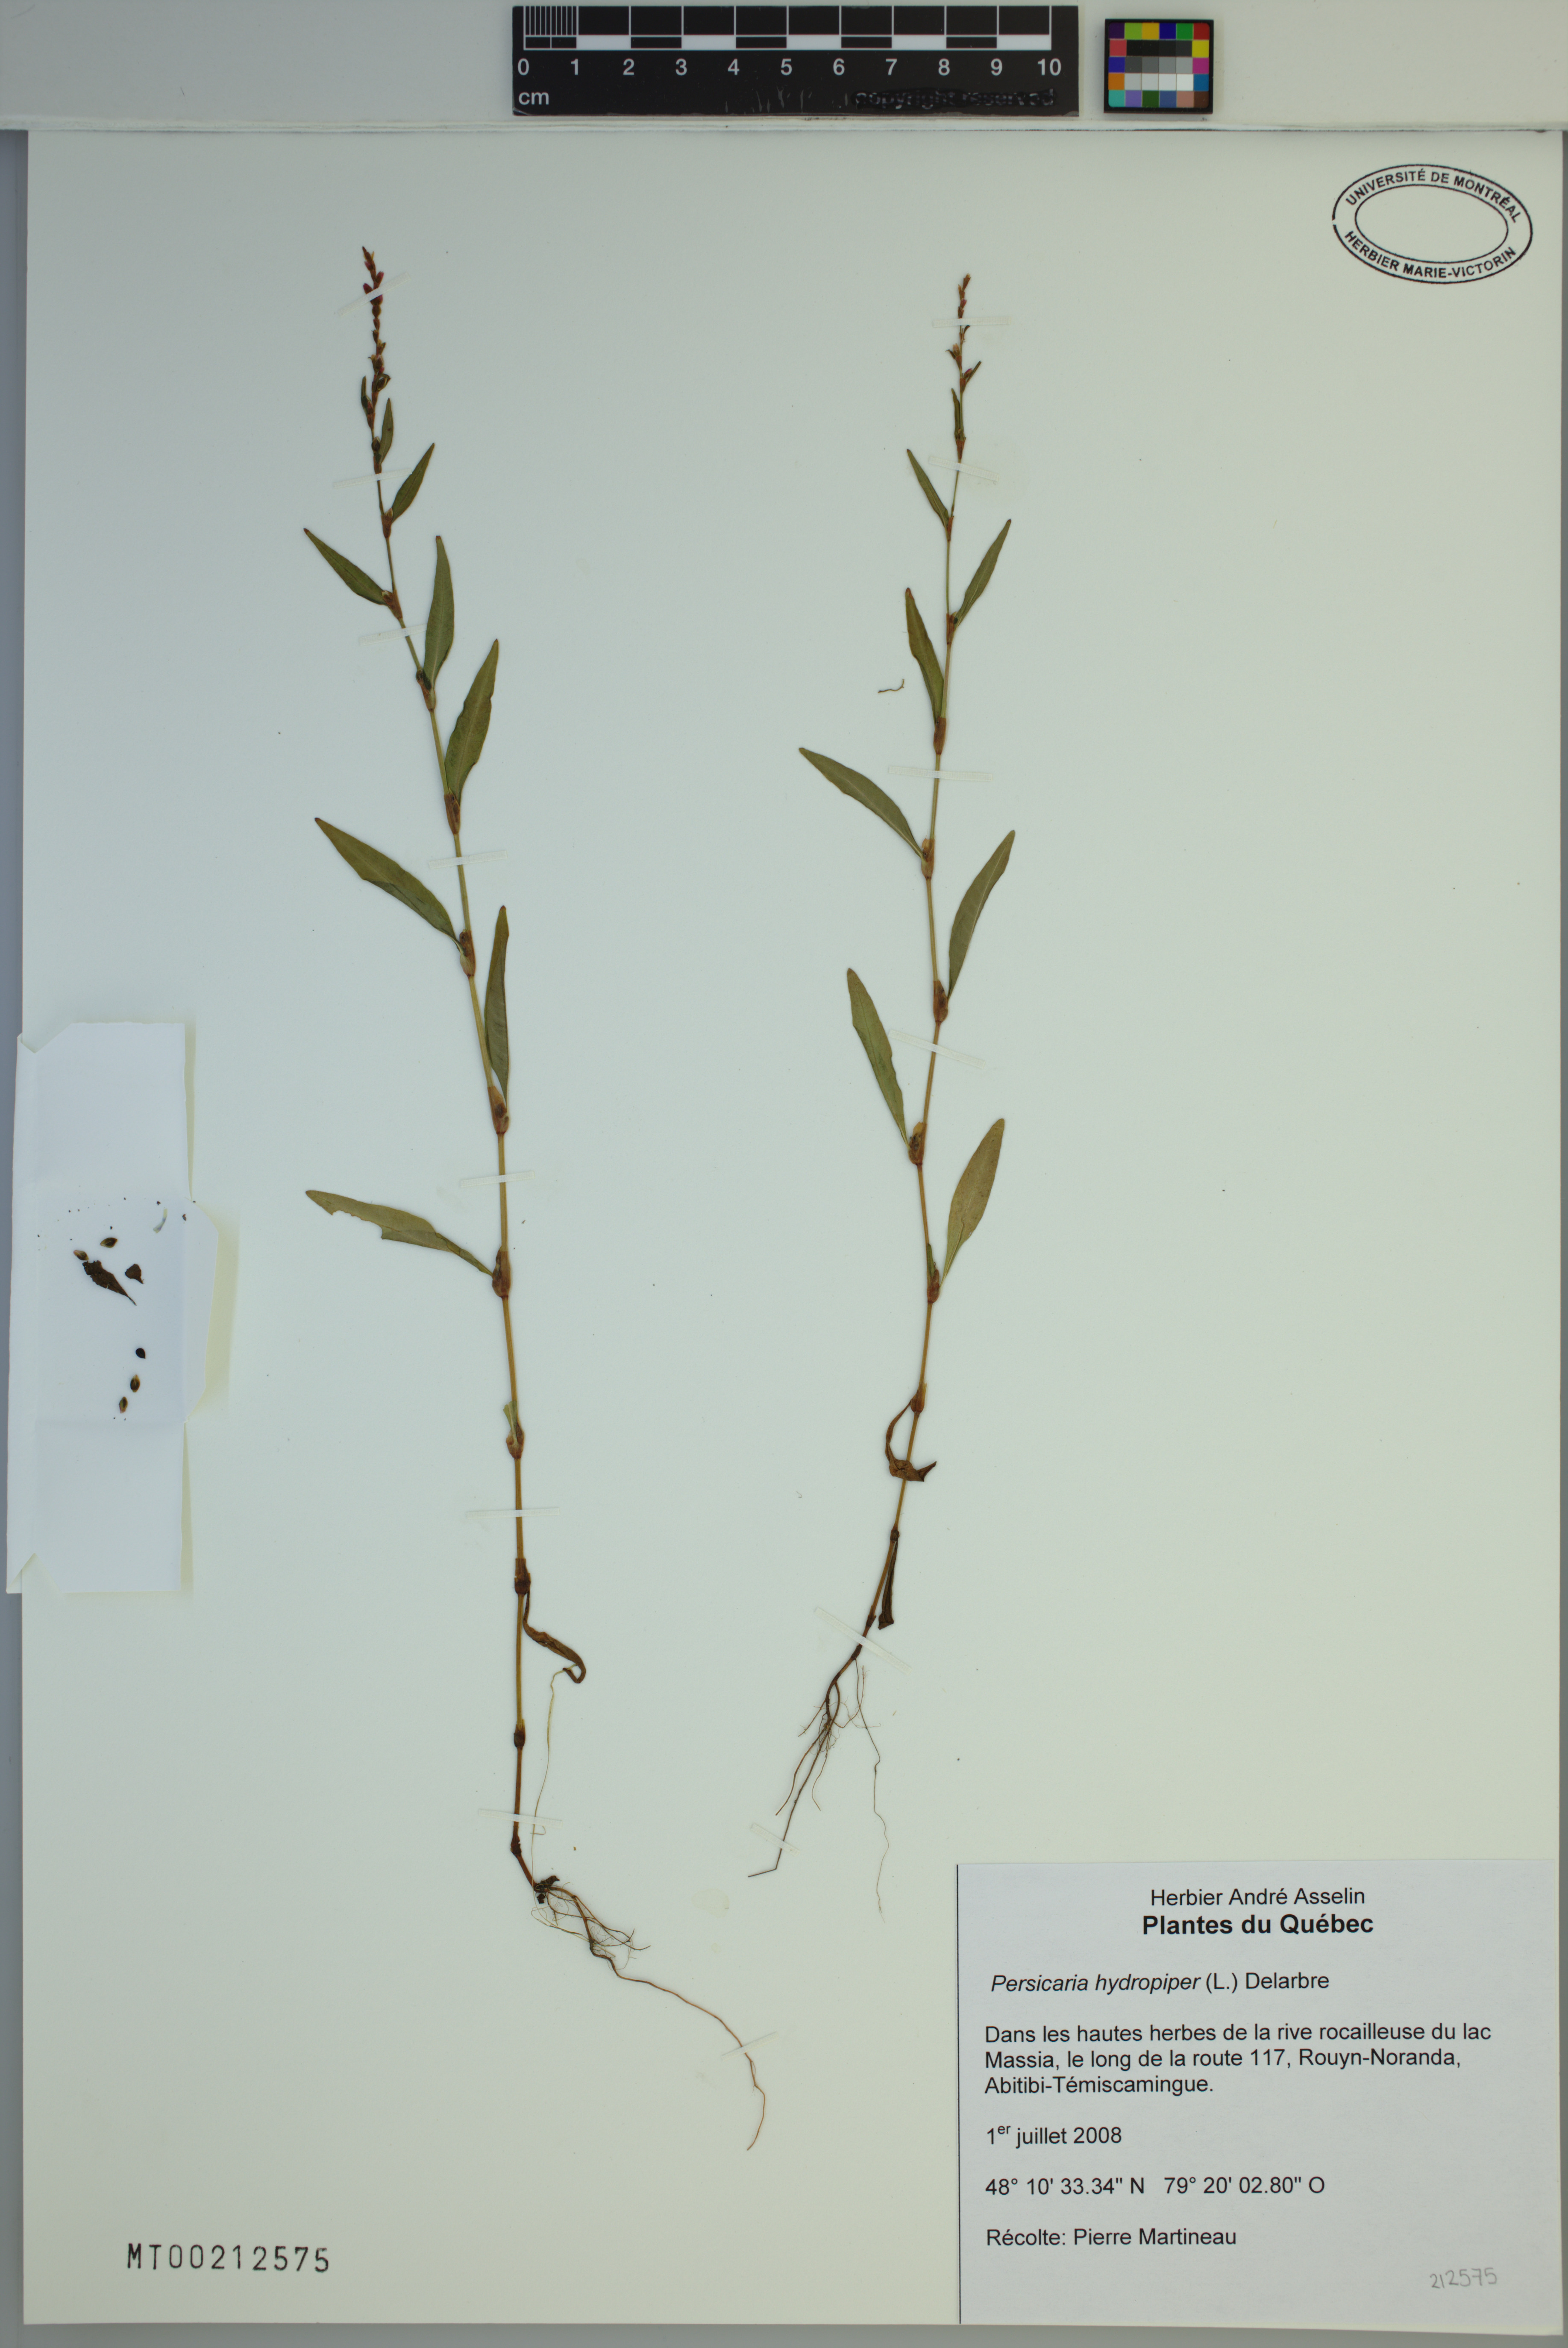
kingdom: Plantae
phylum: Tracheophyta
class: Magnoliopsida
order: Caryophyllales
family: Polygonaceae
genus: Persicaria
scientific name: Persicaria hydropiper
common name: Water-pepper
